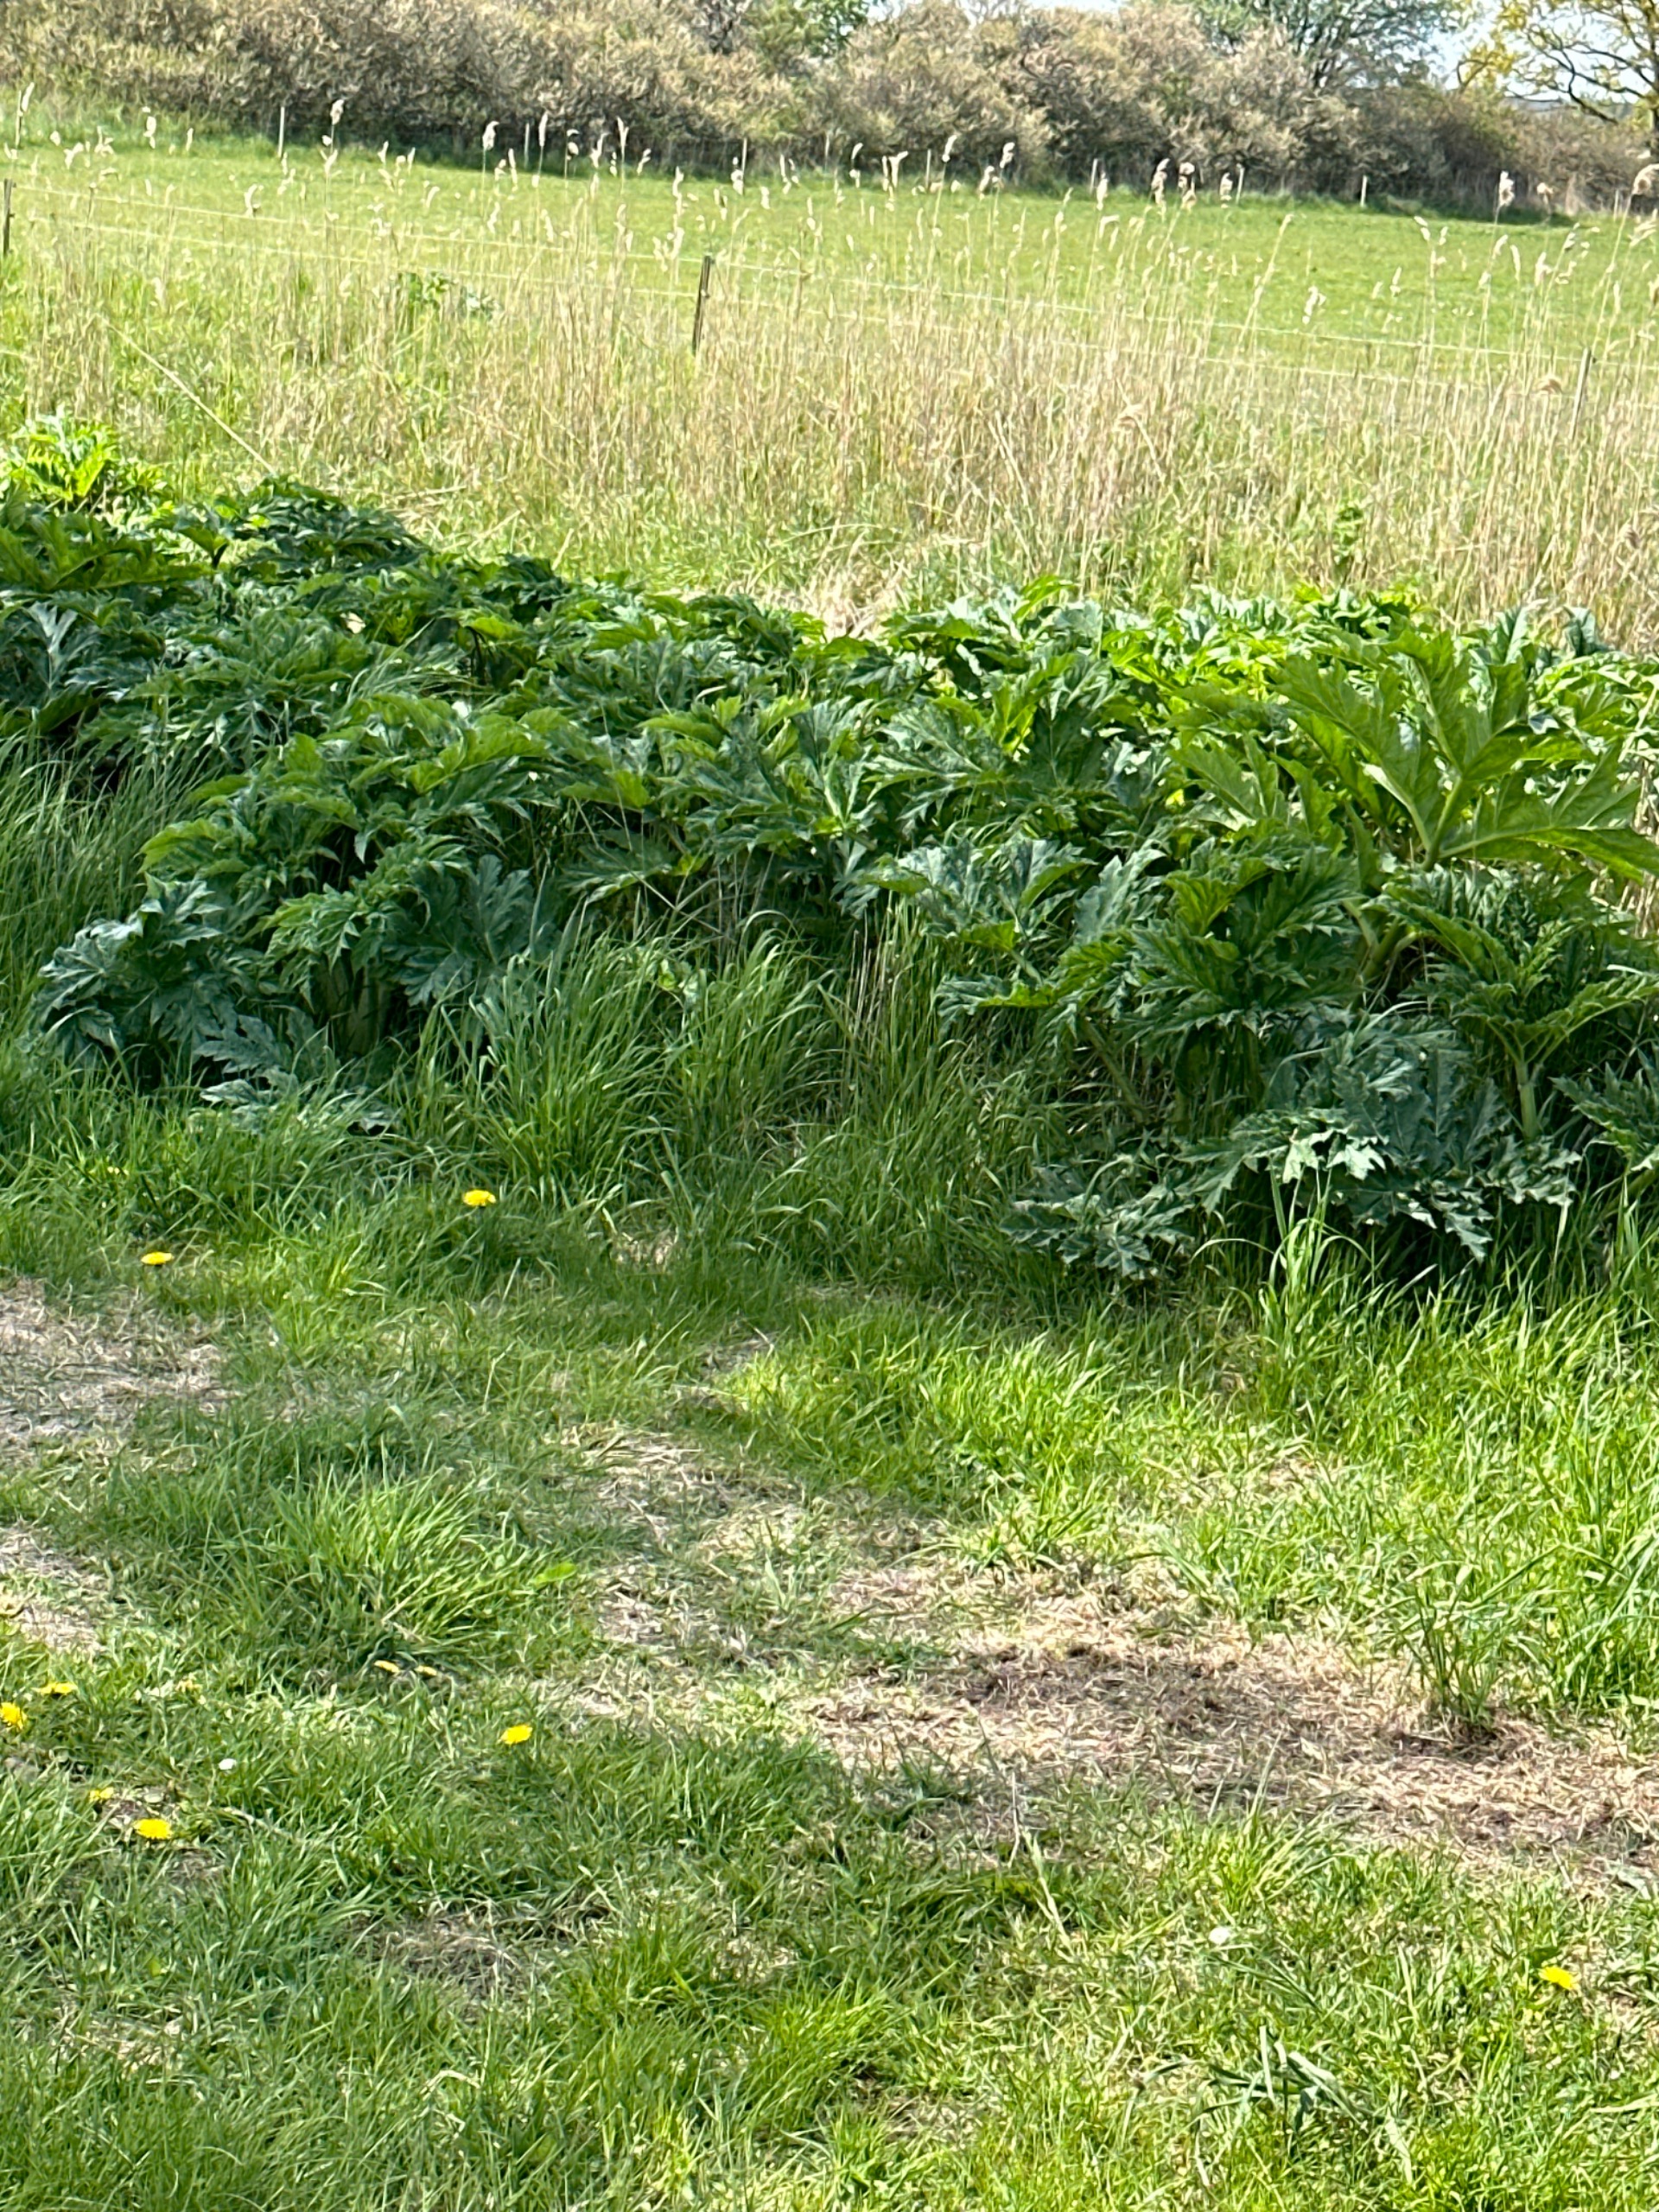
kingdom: Plantae
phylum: Tracheophyta
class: Magnoliopsida
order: Apiales
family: Apiaceae
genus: Heracleum
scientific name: Heracleum mantegazzianum
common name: Kæmpe-bjørneklo
